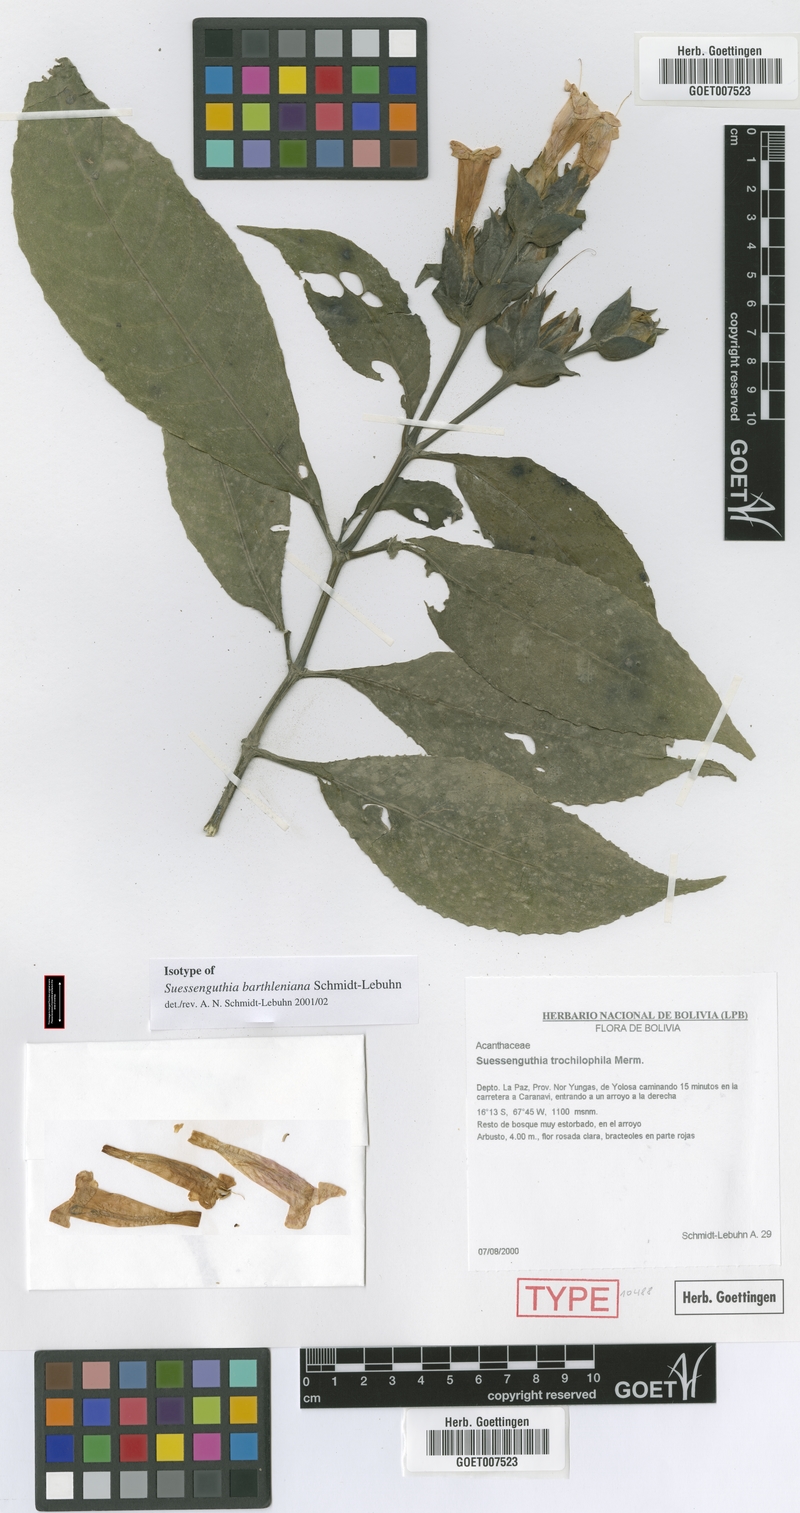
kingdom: Plantae
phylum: Tracheophyta
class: Magnoliopsida
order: Lamiales
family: Acanthaceae
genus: Suessenguthia
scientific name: Suessenguthia barthleniana
